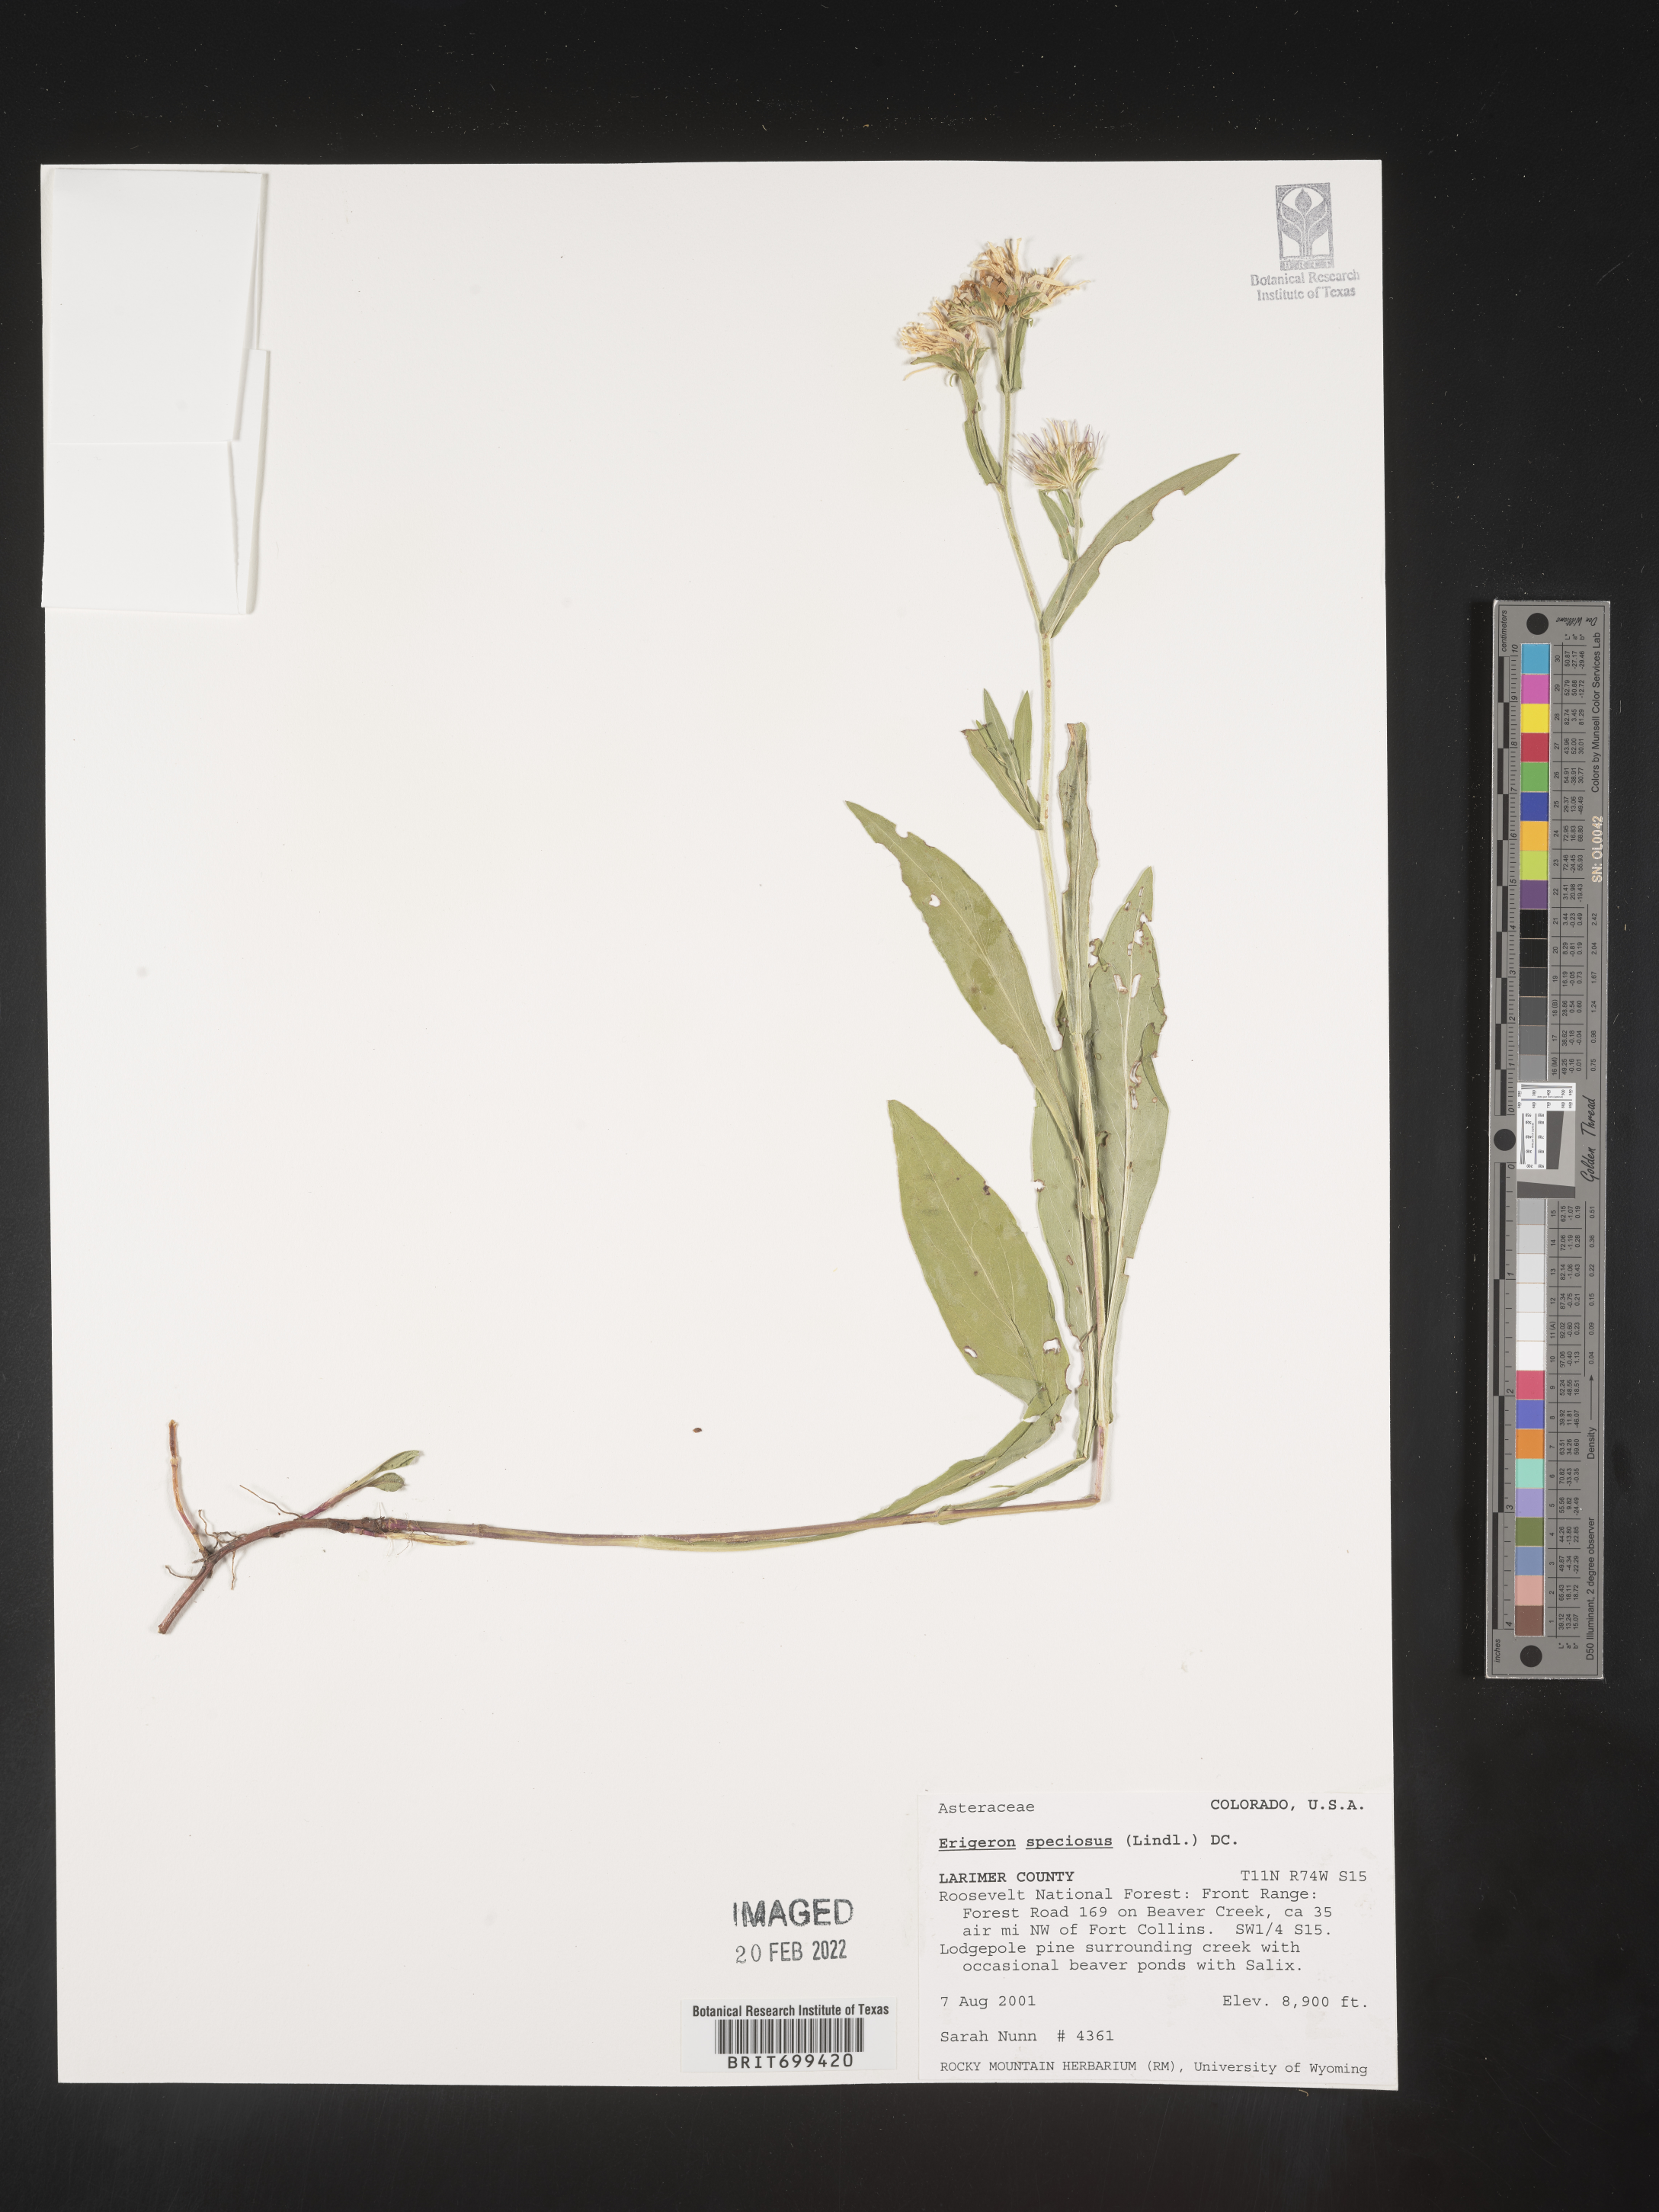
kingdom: Plantae
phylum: Tracheophyta
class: Magnoliopsida
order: Asterales
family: Asteraceae
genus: Erigeron
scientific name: Erigeron speciosus
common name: Aspen fleabane
